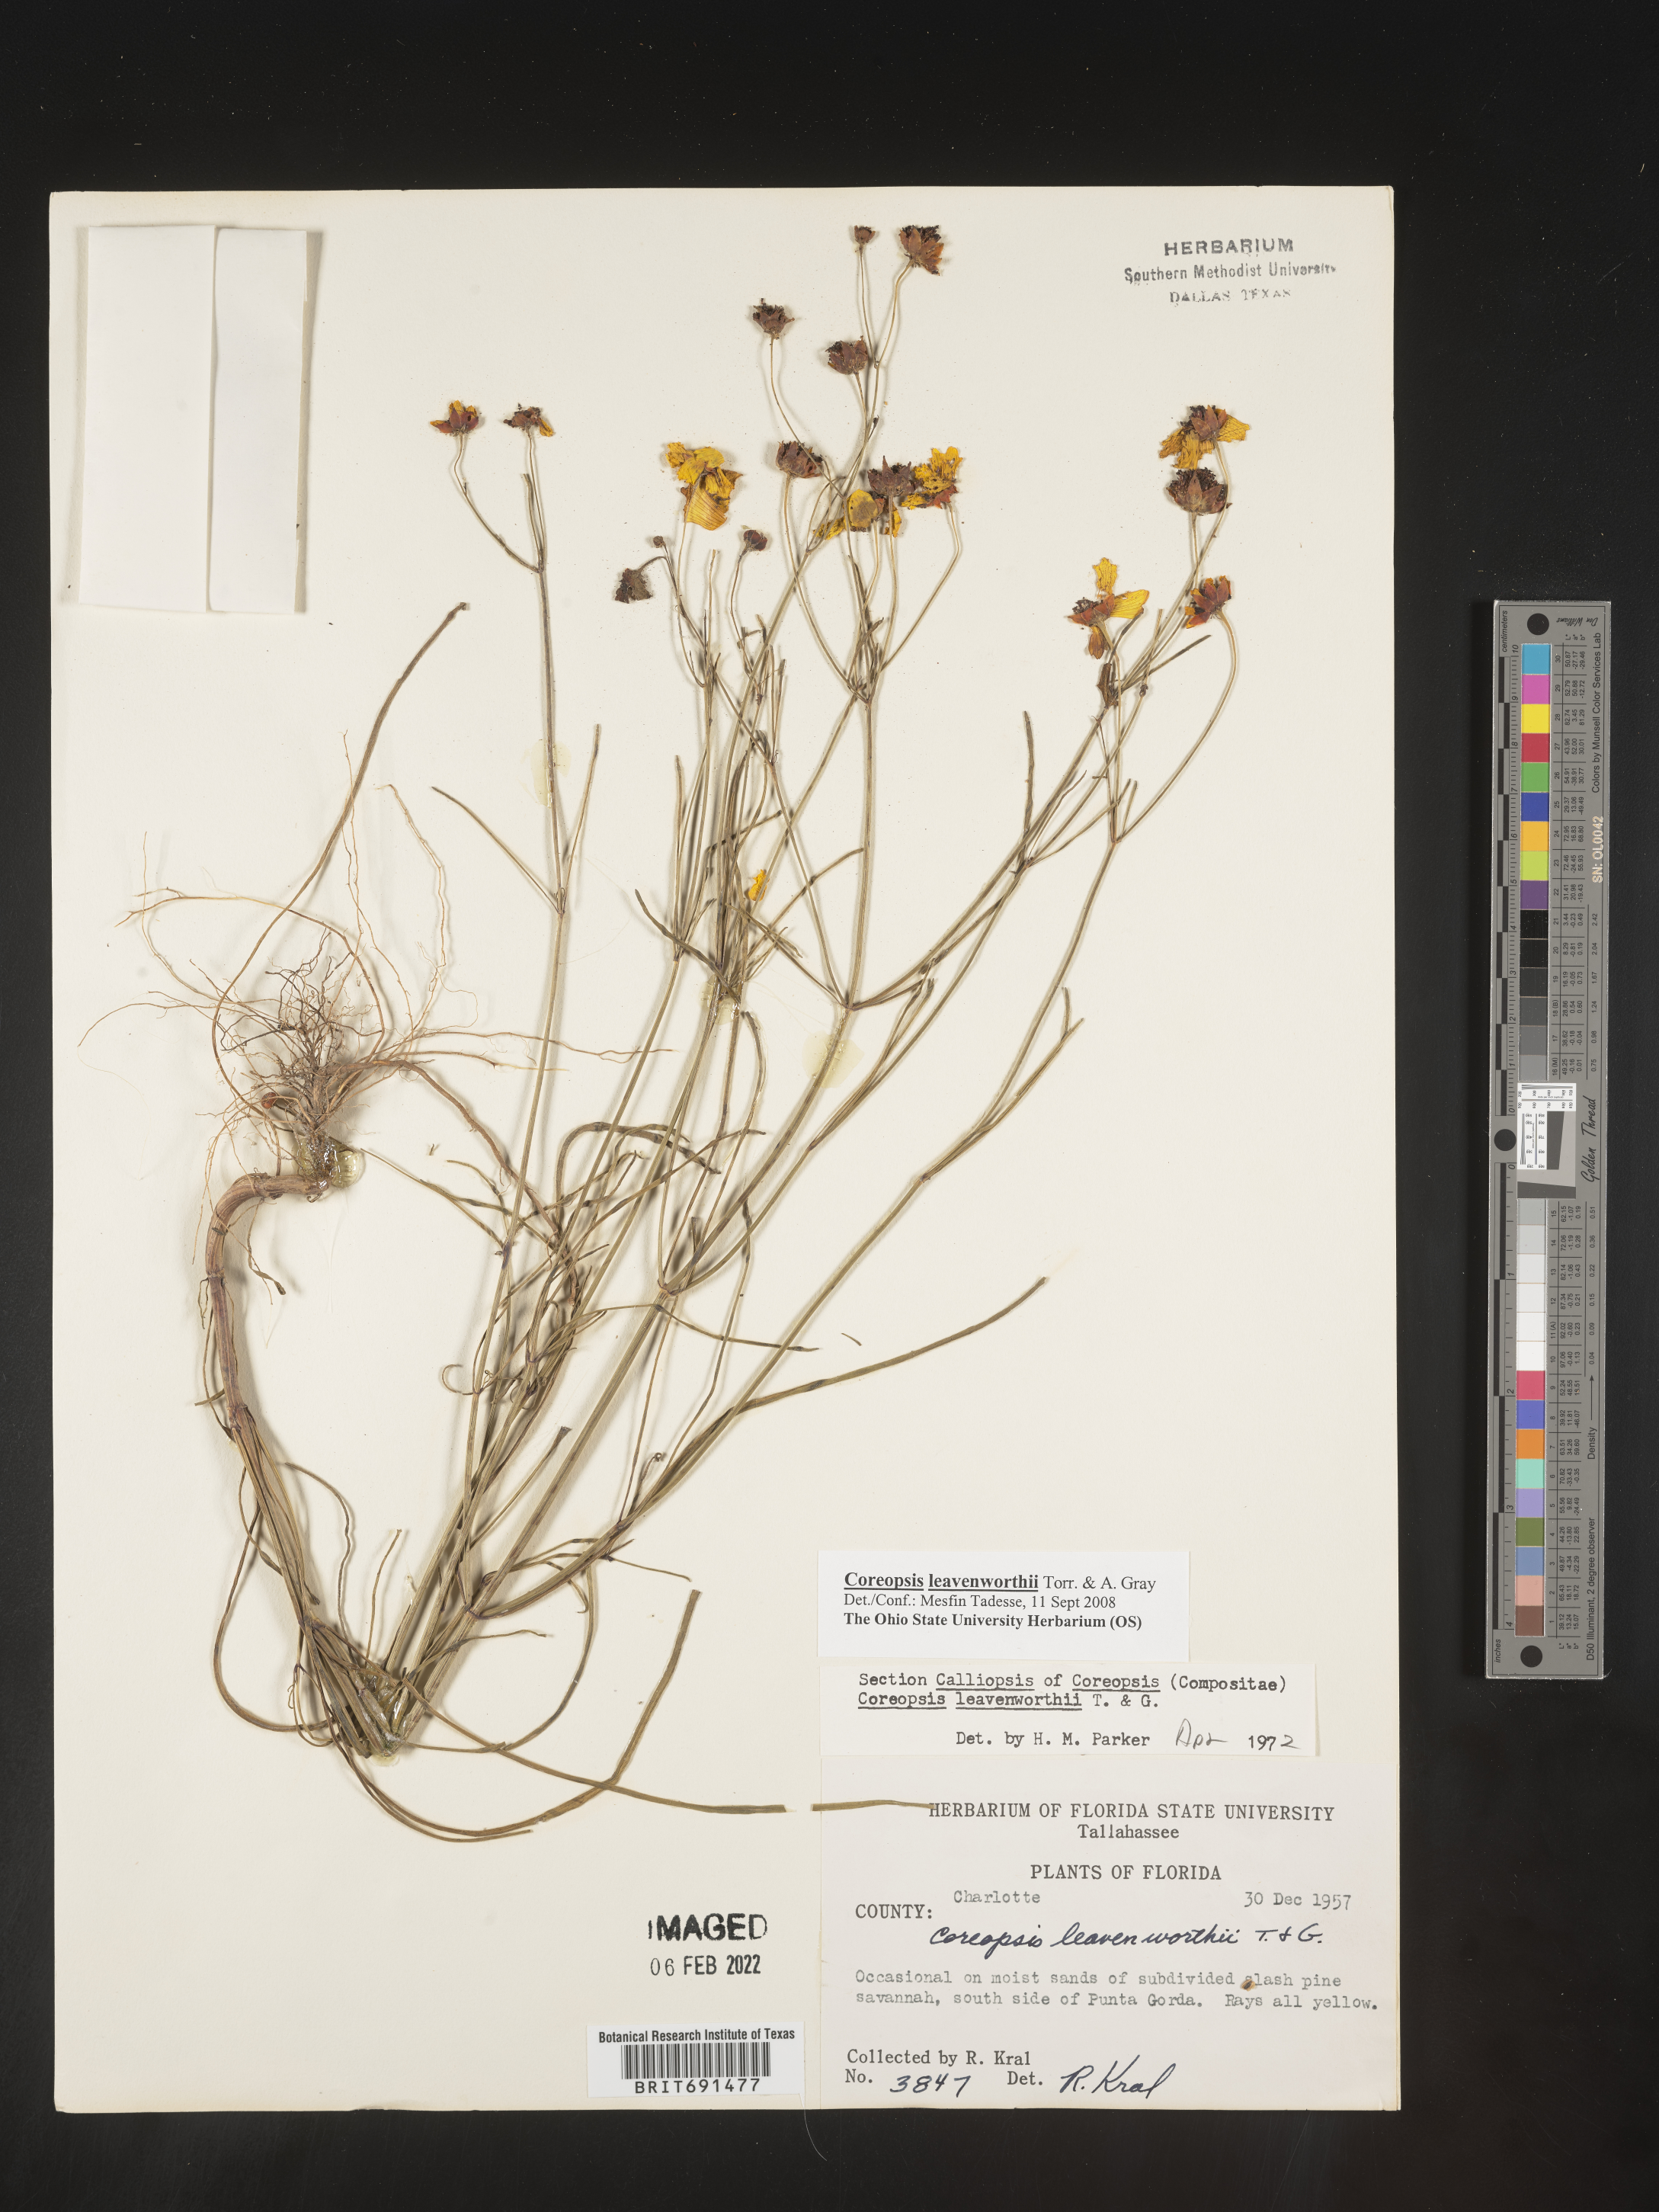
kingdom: Plantae
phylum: Tracheophyta
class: Magnoliopsida
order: Asterales
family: Asteraceae
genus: Coreopsis
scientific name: Coreopsis leavenworthii
